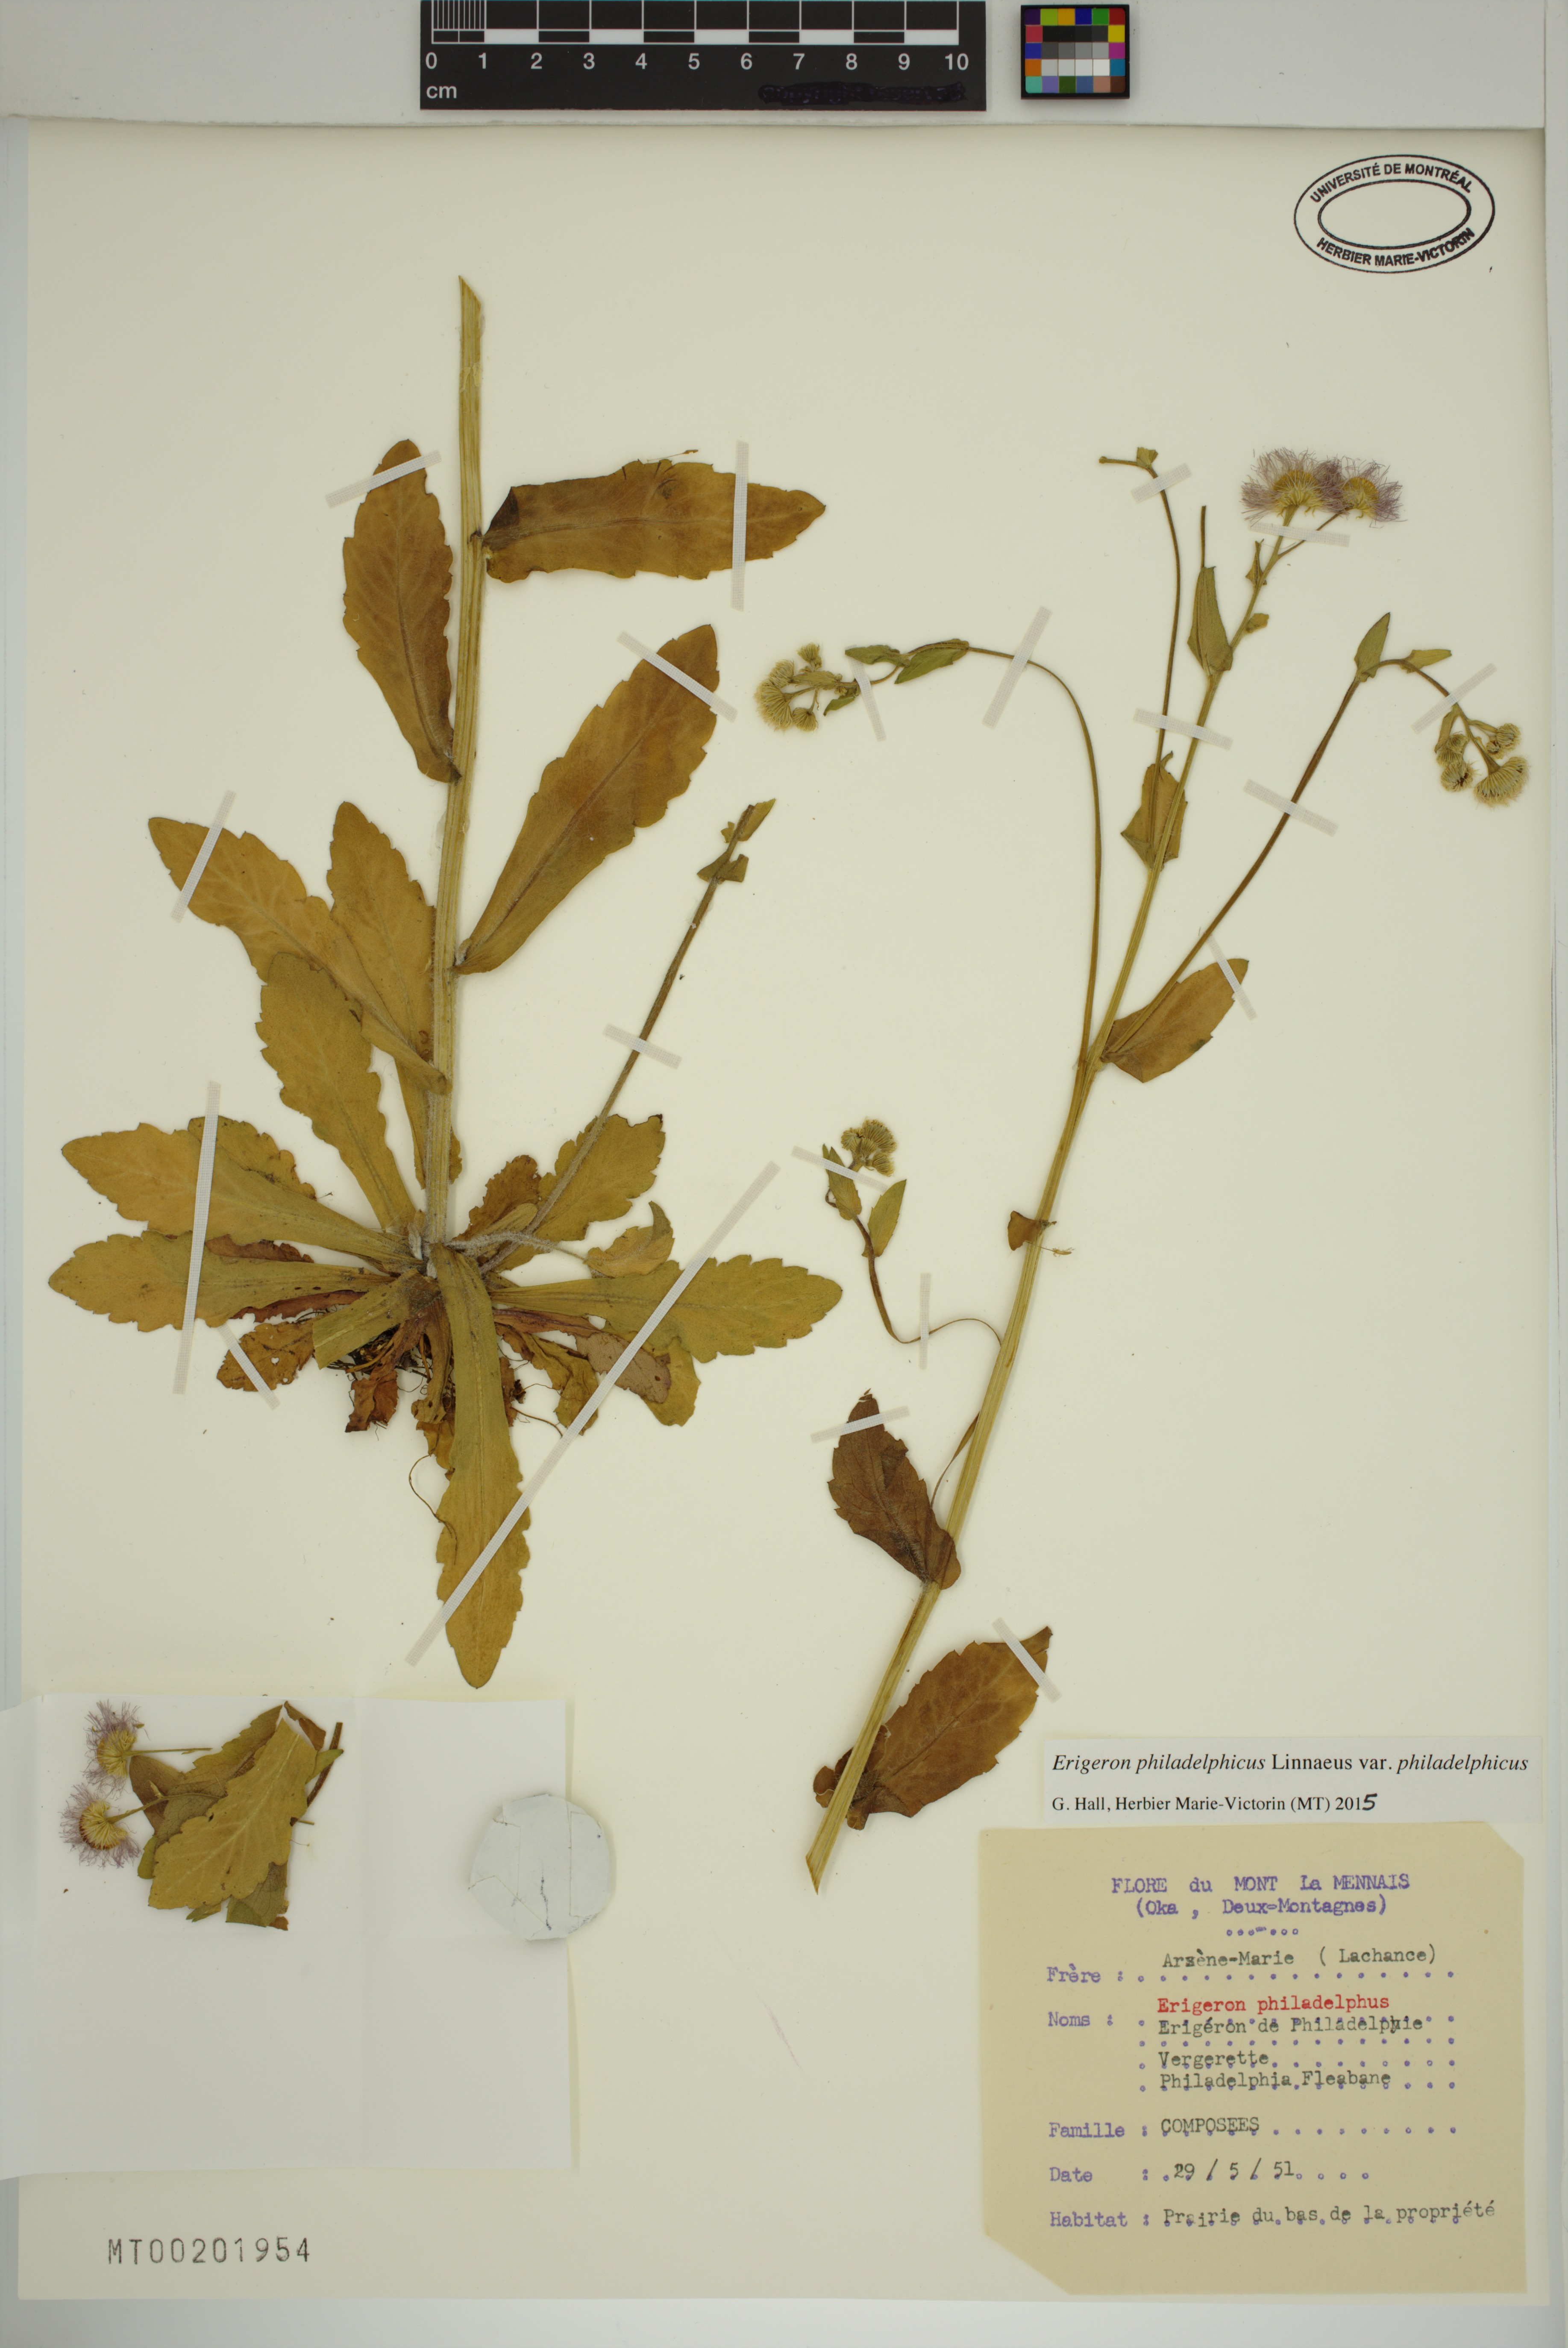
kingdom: Plantae
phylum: Tracheophyta
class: Magnoliopsida
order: Asterales
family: Asteraceae
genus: Erigeron
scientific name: Erigeron philadelphicus
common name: Robin's-plantain
